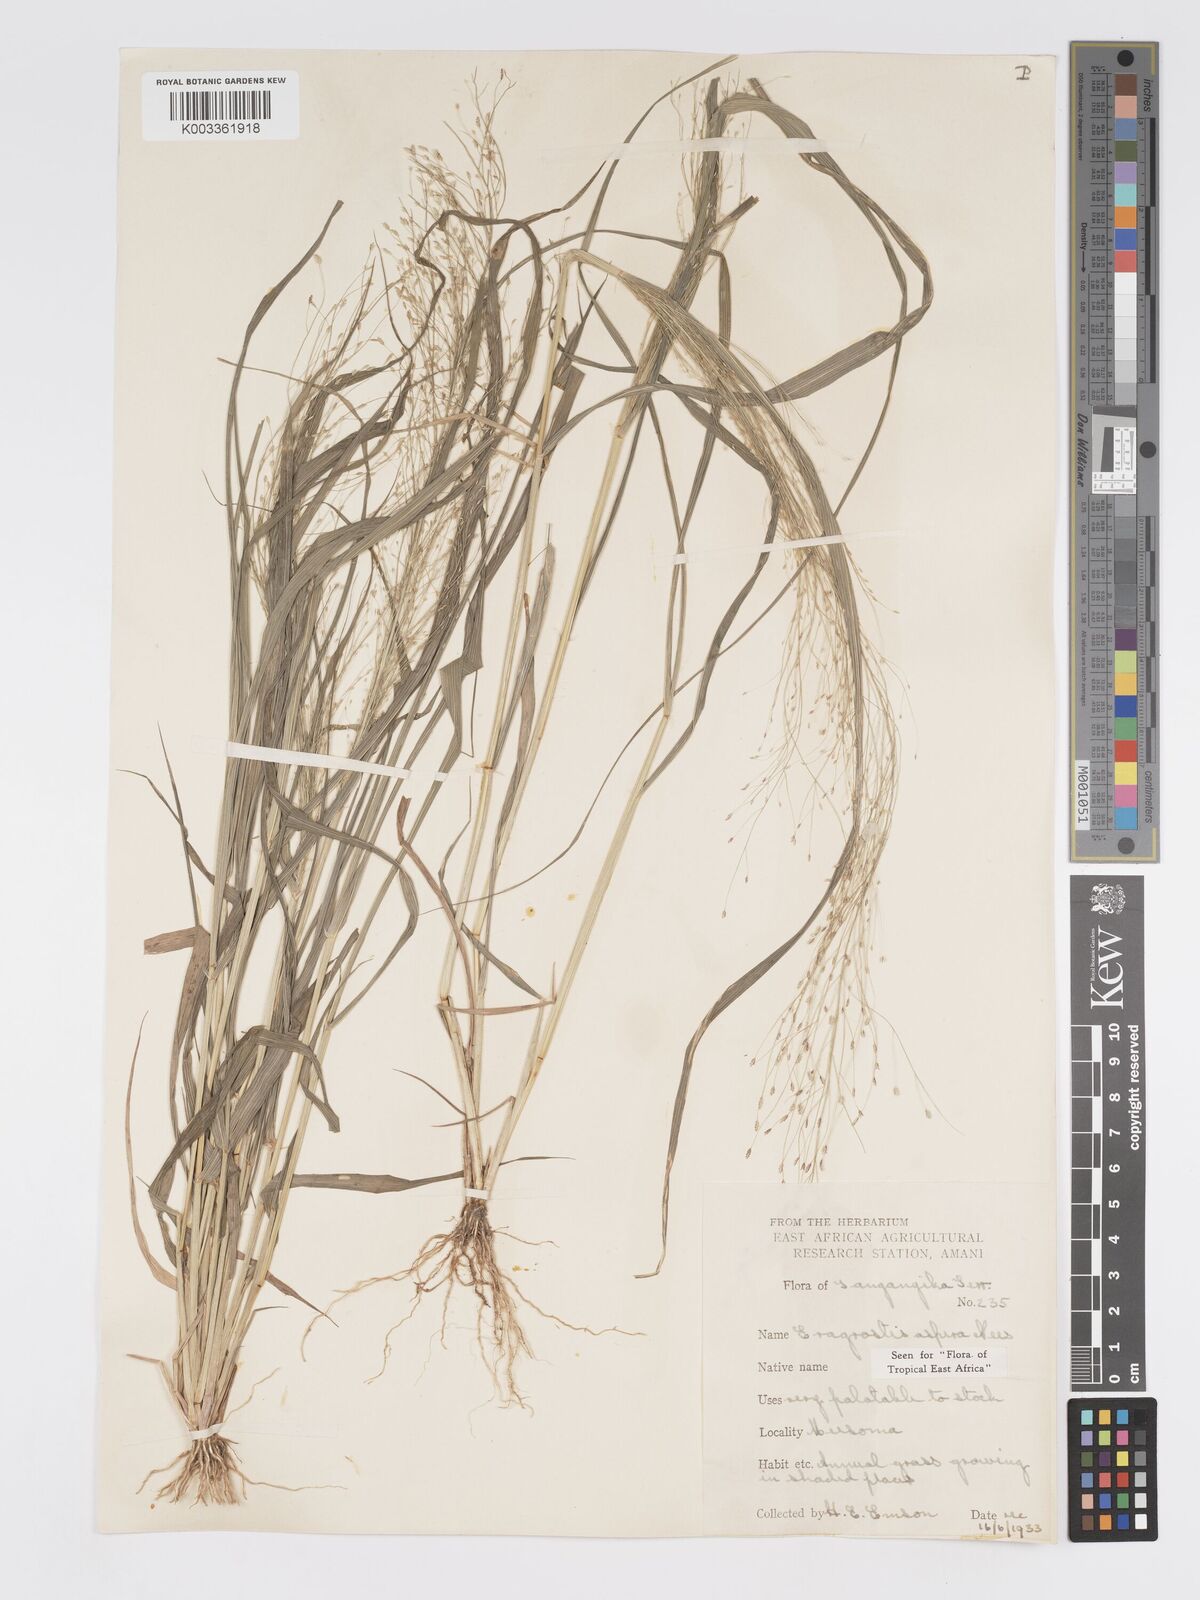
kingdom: Plantae
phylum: Tracheophyta
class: Liliopsida
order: Poales
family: Poaceae
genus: Eragrostis
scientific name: Eragrostis aspera
